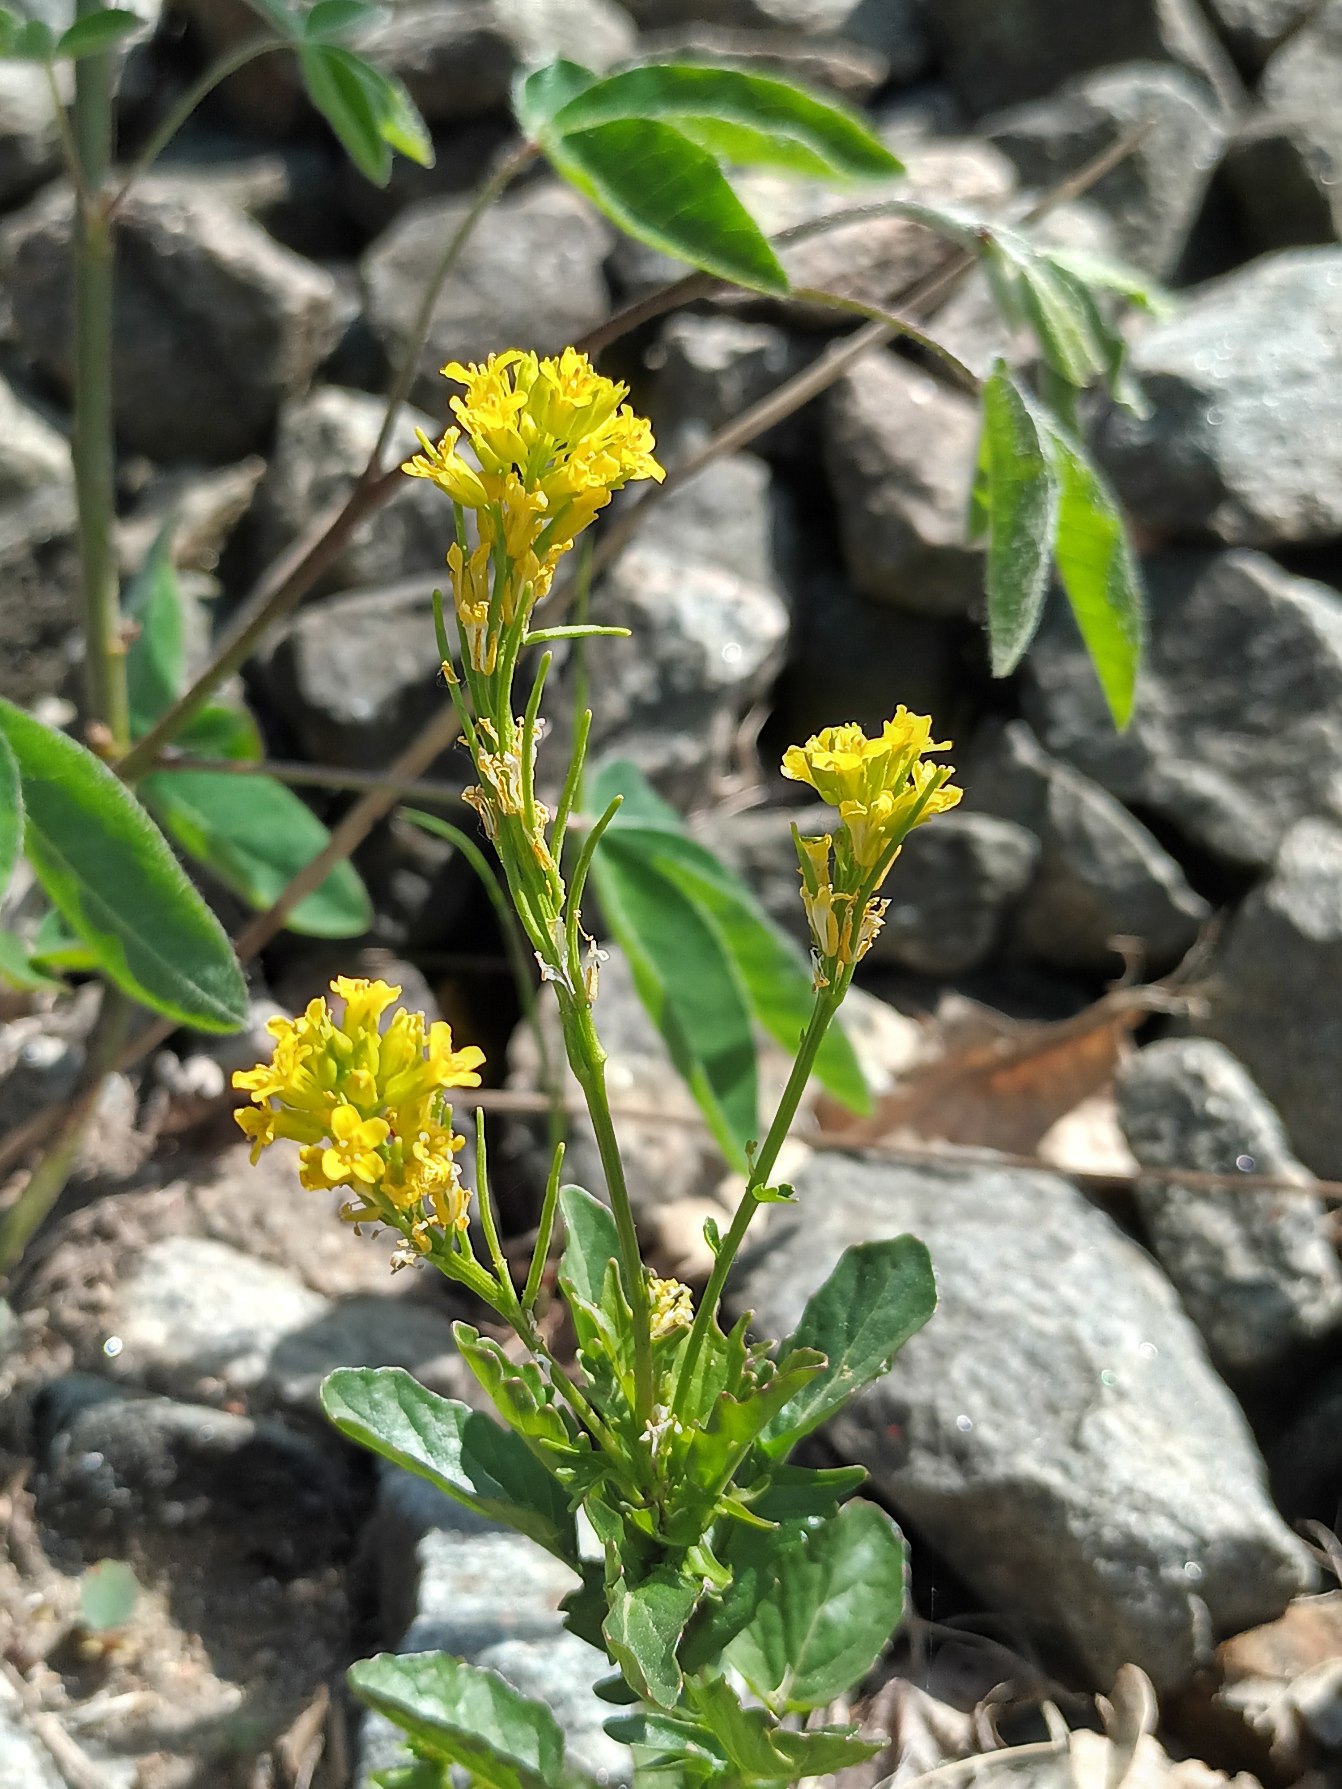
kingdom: Plantae
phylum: Tracheophyta
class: Magnoliopsida
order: Brassicales
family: Brassicaceae
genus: Barbarea
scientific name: Barbarea vulgaris
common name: Almindelig vinterkarse (varietet)
